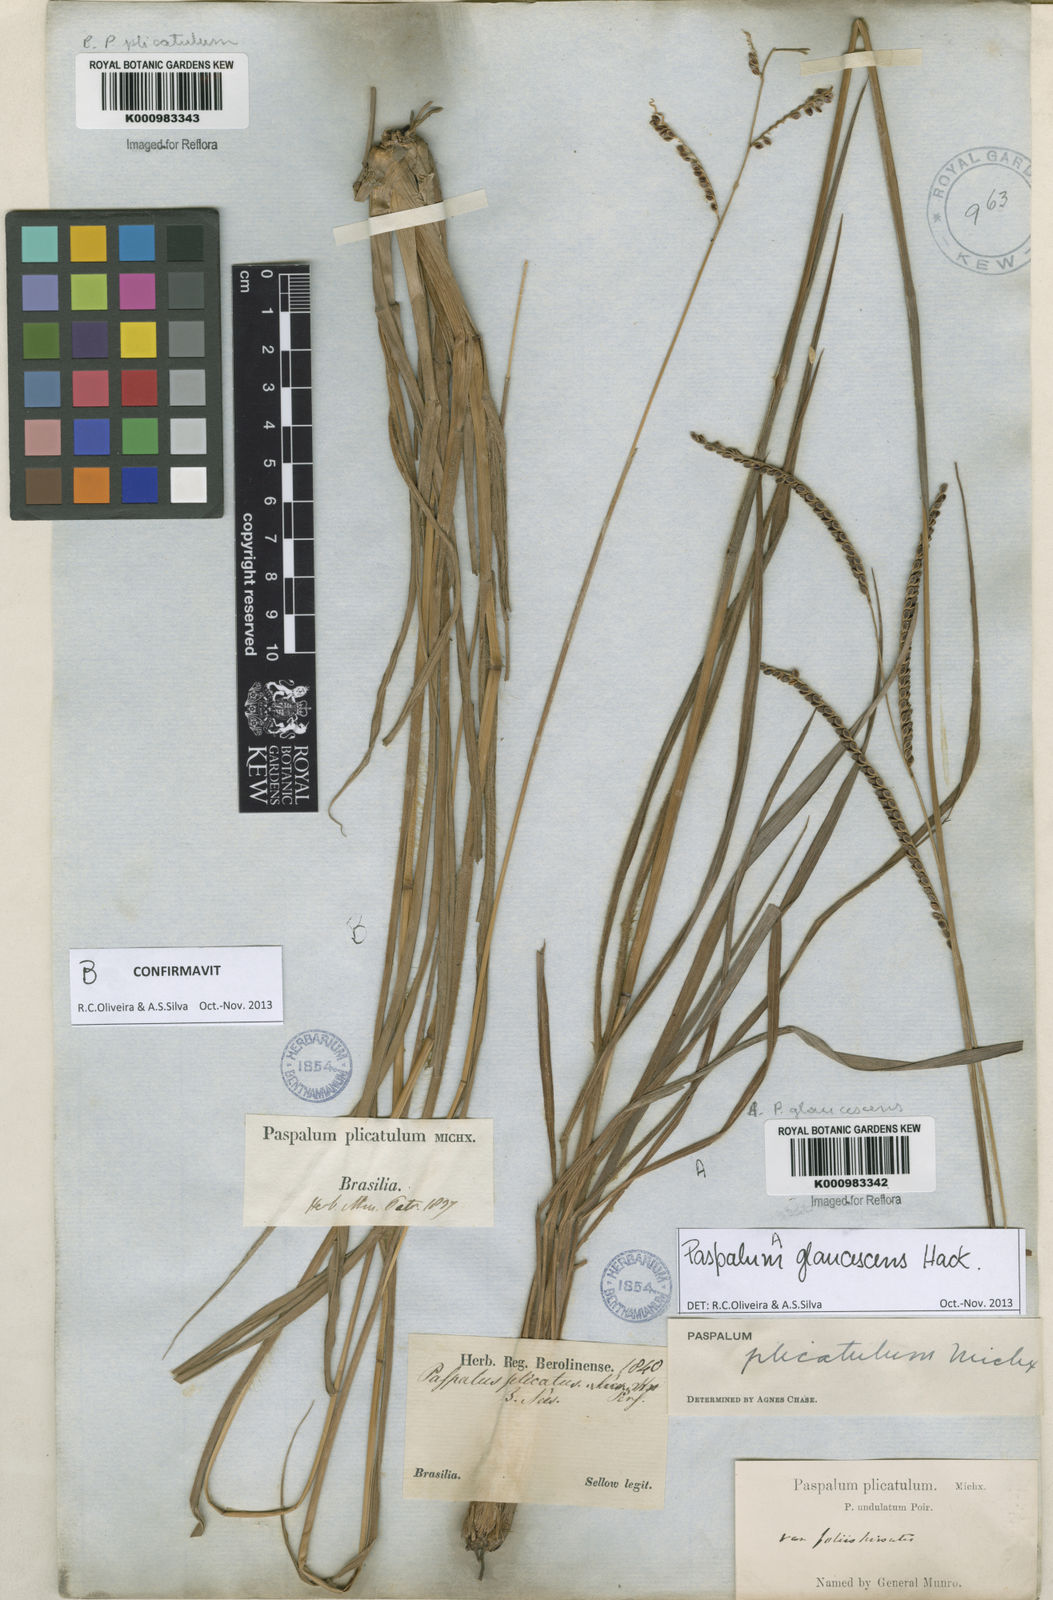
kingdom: Plantae
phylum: Tracheophyta
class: Liliopsida
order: Poales
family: Poaceae
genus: Paspalum
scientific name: Paspalum plicatulum
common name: Top paspalum
